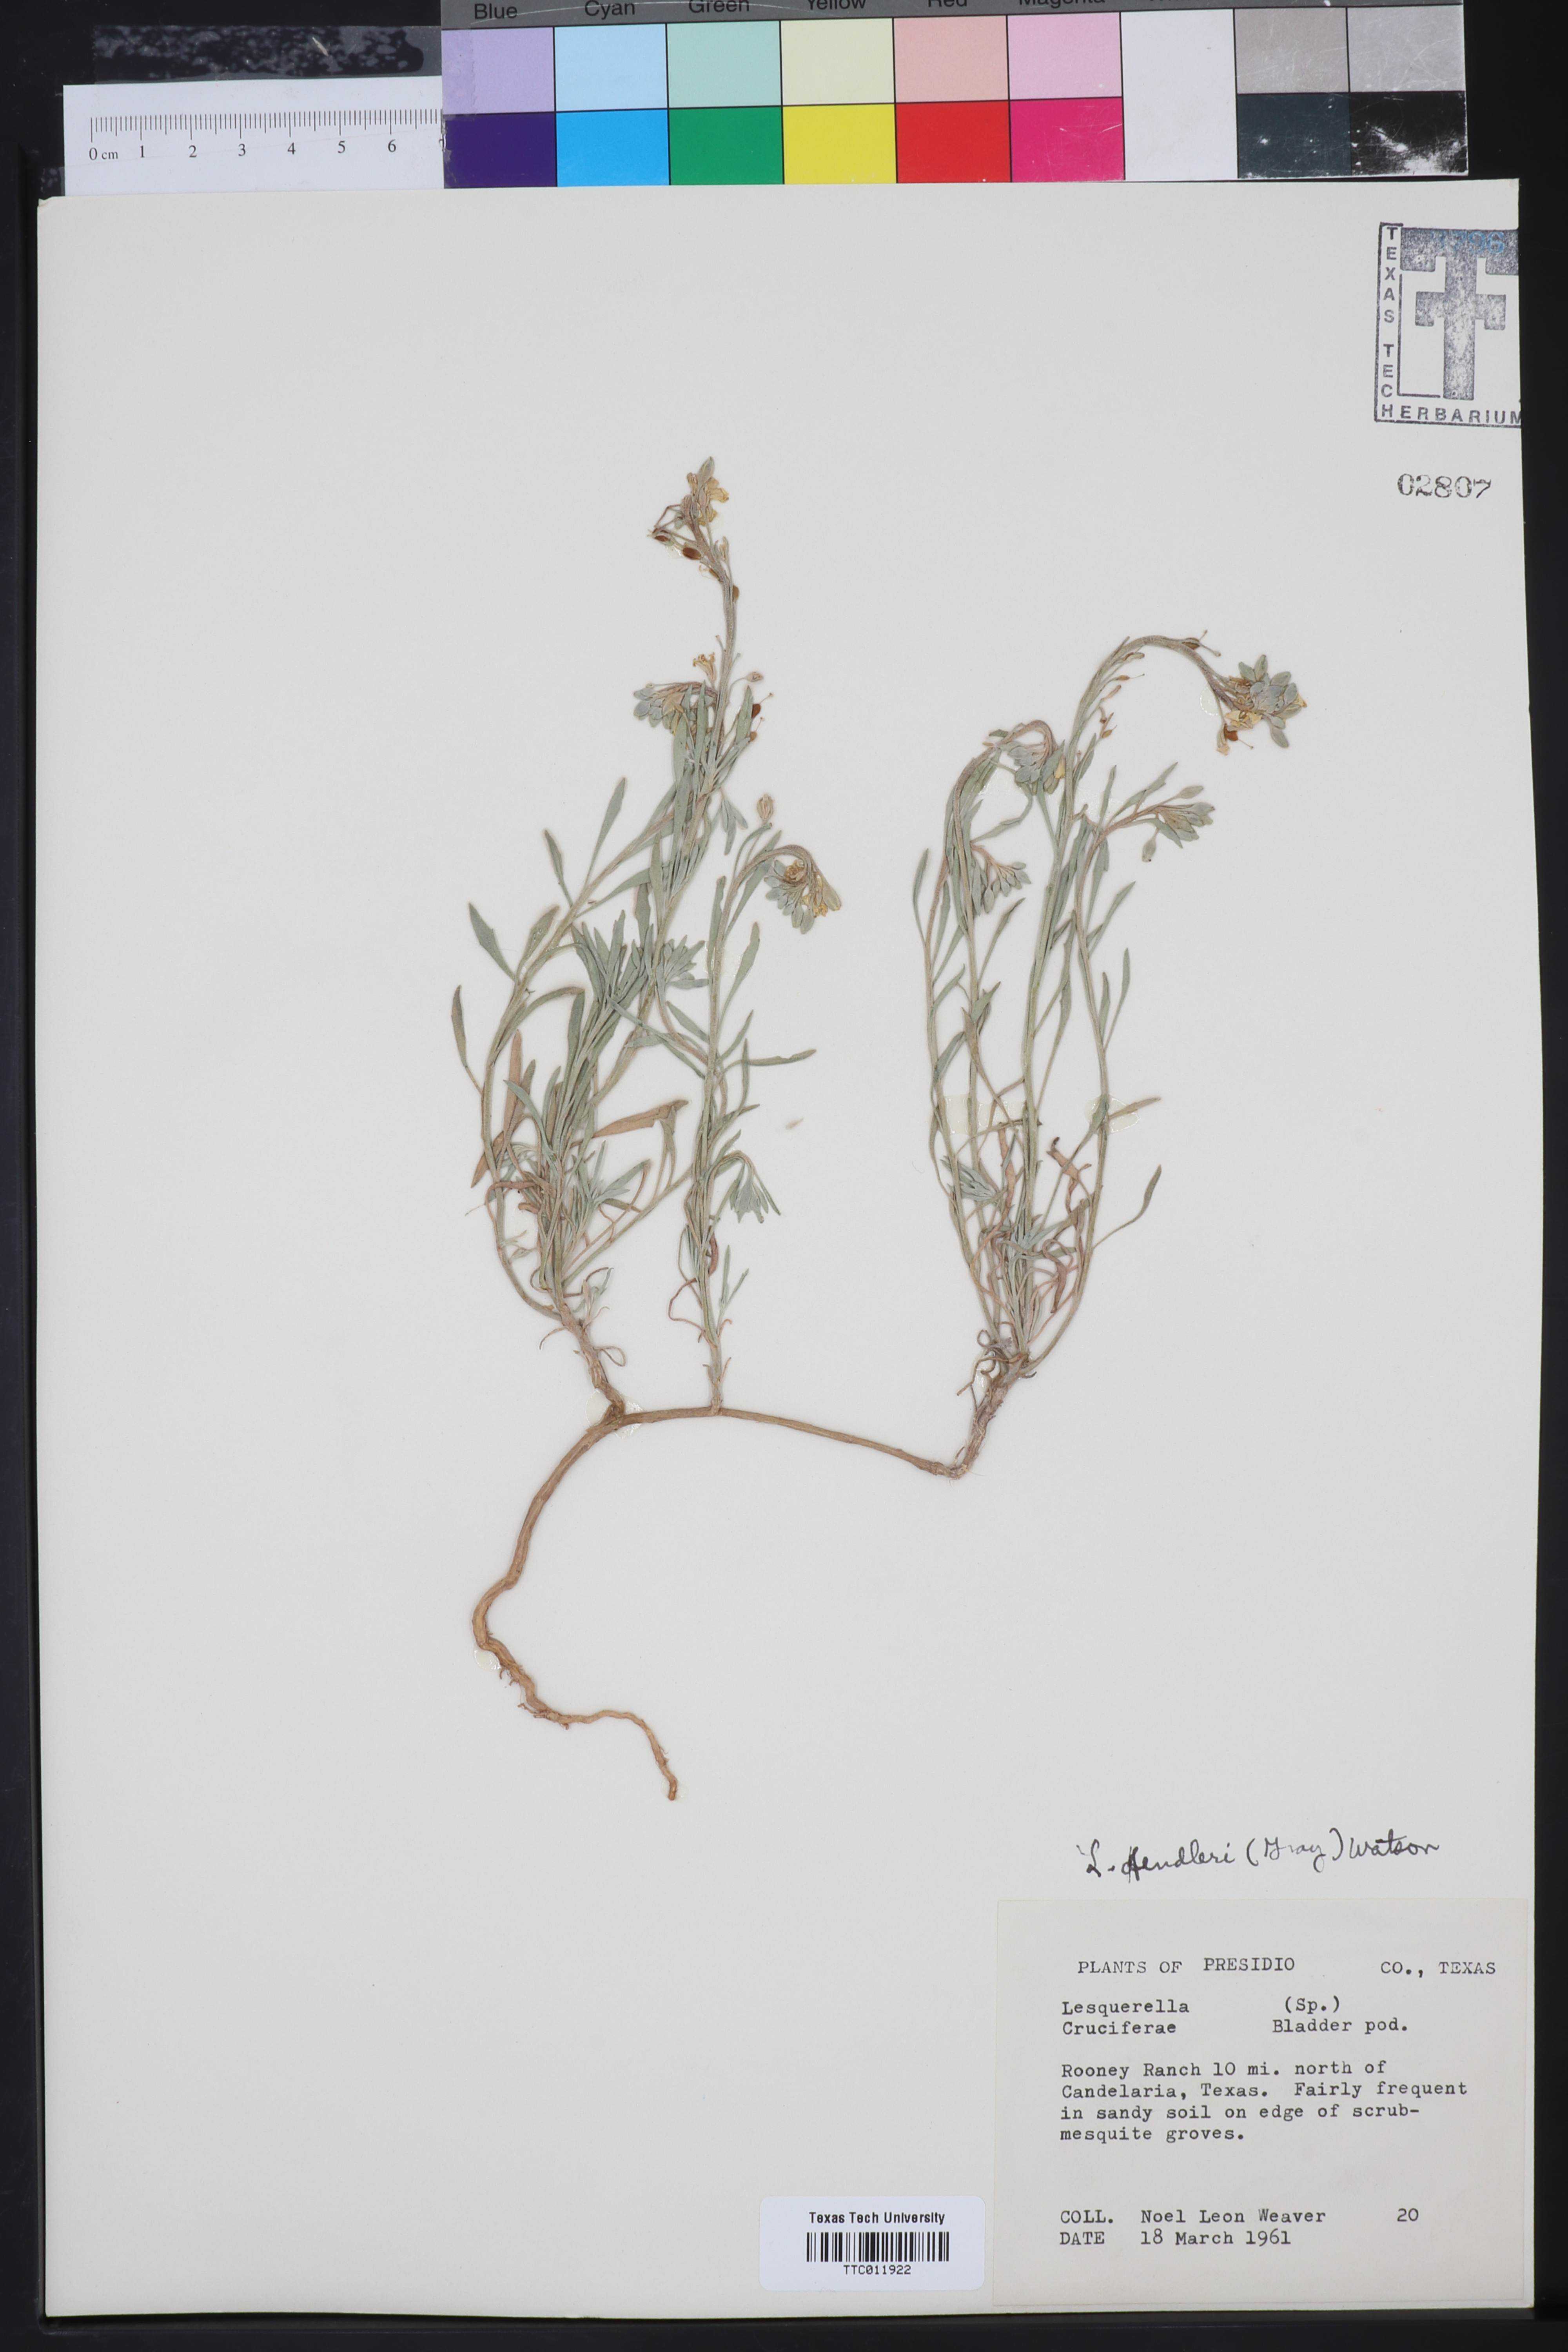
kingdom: Plantae
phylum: Tracheophyta
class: Magnoliopsida
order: Brassicales
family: Brassicaceae
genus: Physaria
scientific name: Physaria fendleri
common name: Fendler's bladderpod
